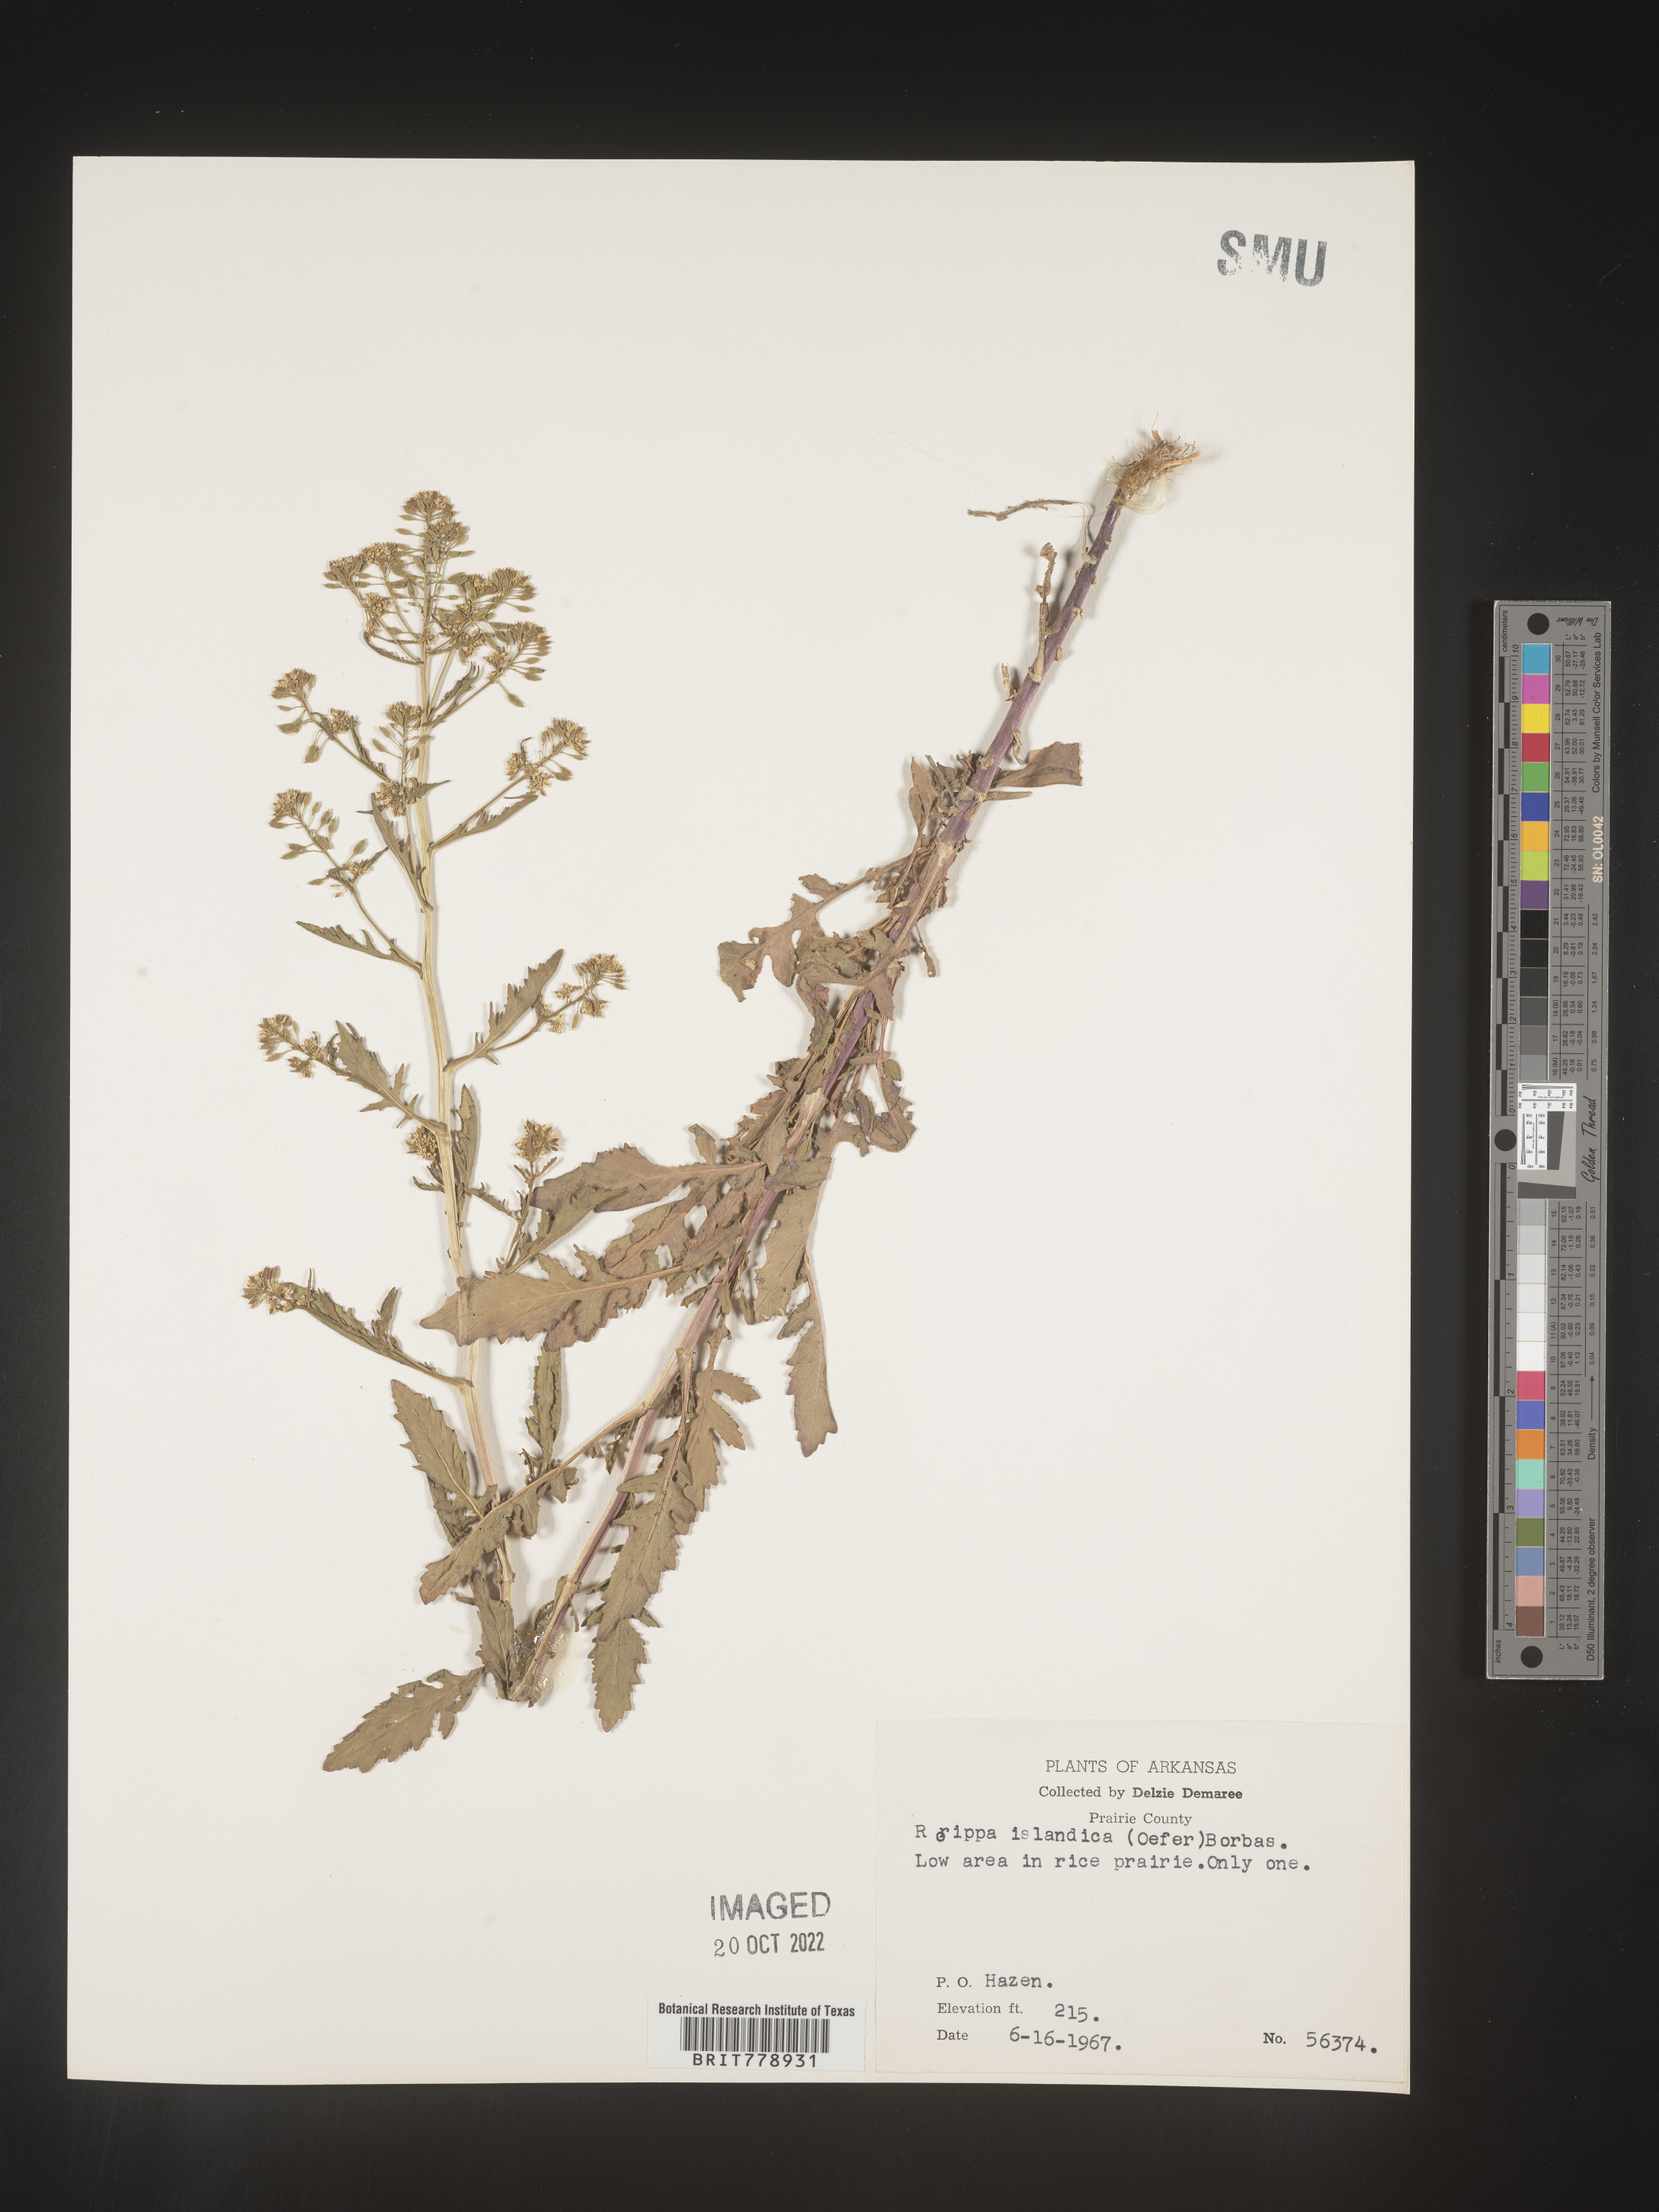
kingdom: Plantae
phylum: Tracheophyta
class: Magnoliopsida
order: Brassicales
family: Brassicaceae
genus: Rorippa
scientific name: Rorippa palustris
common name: Marsh yellow-cress
